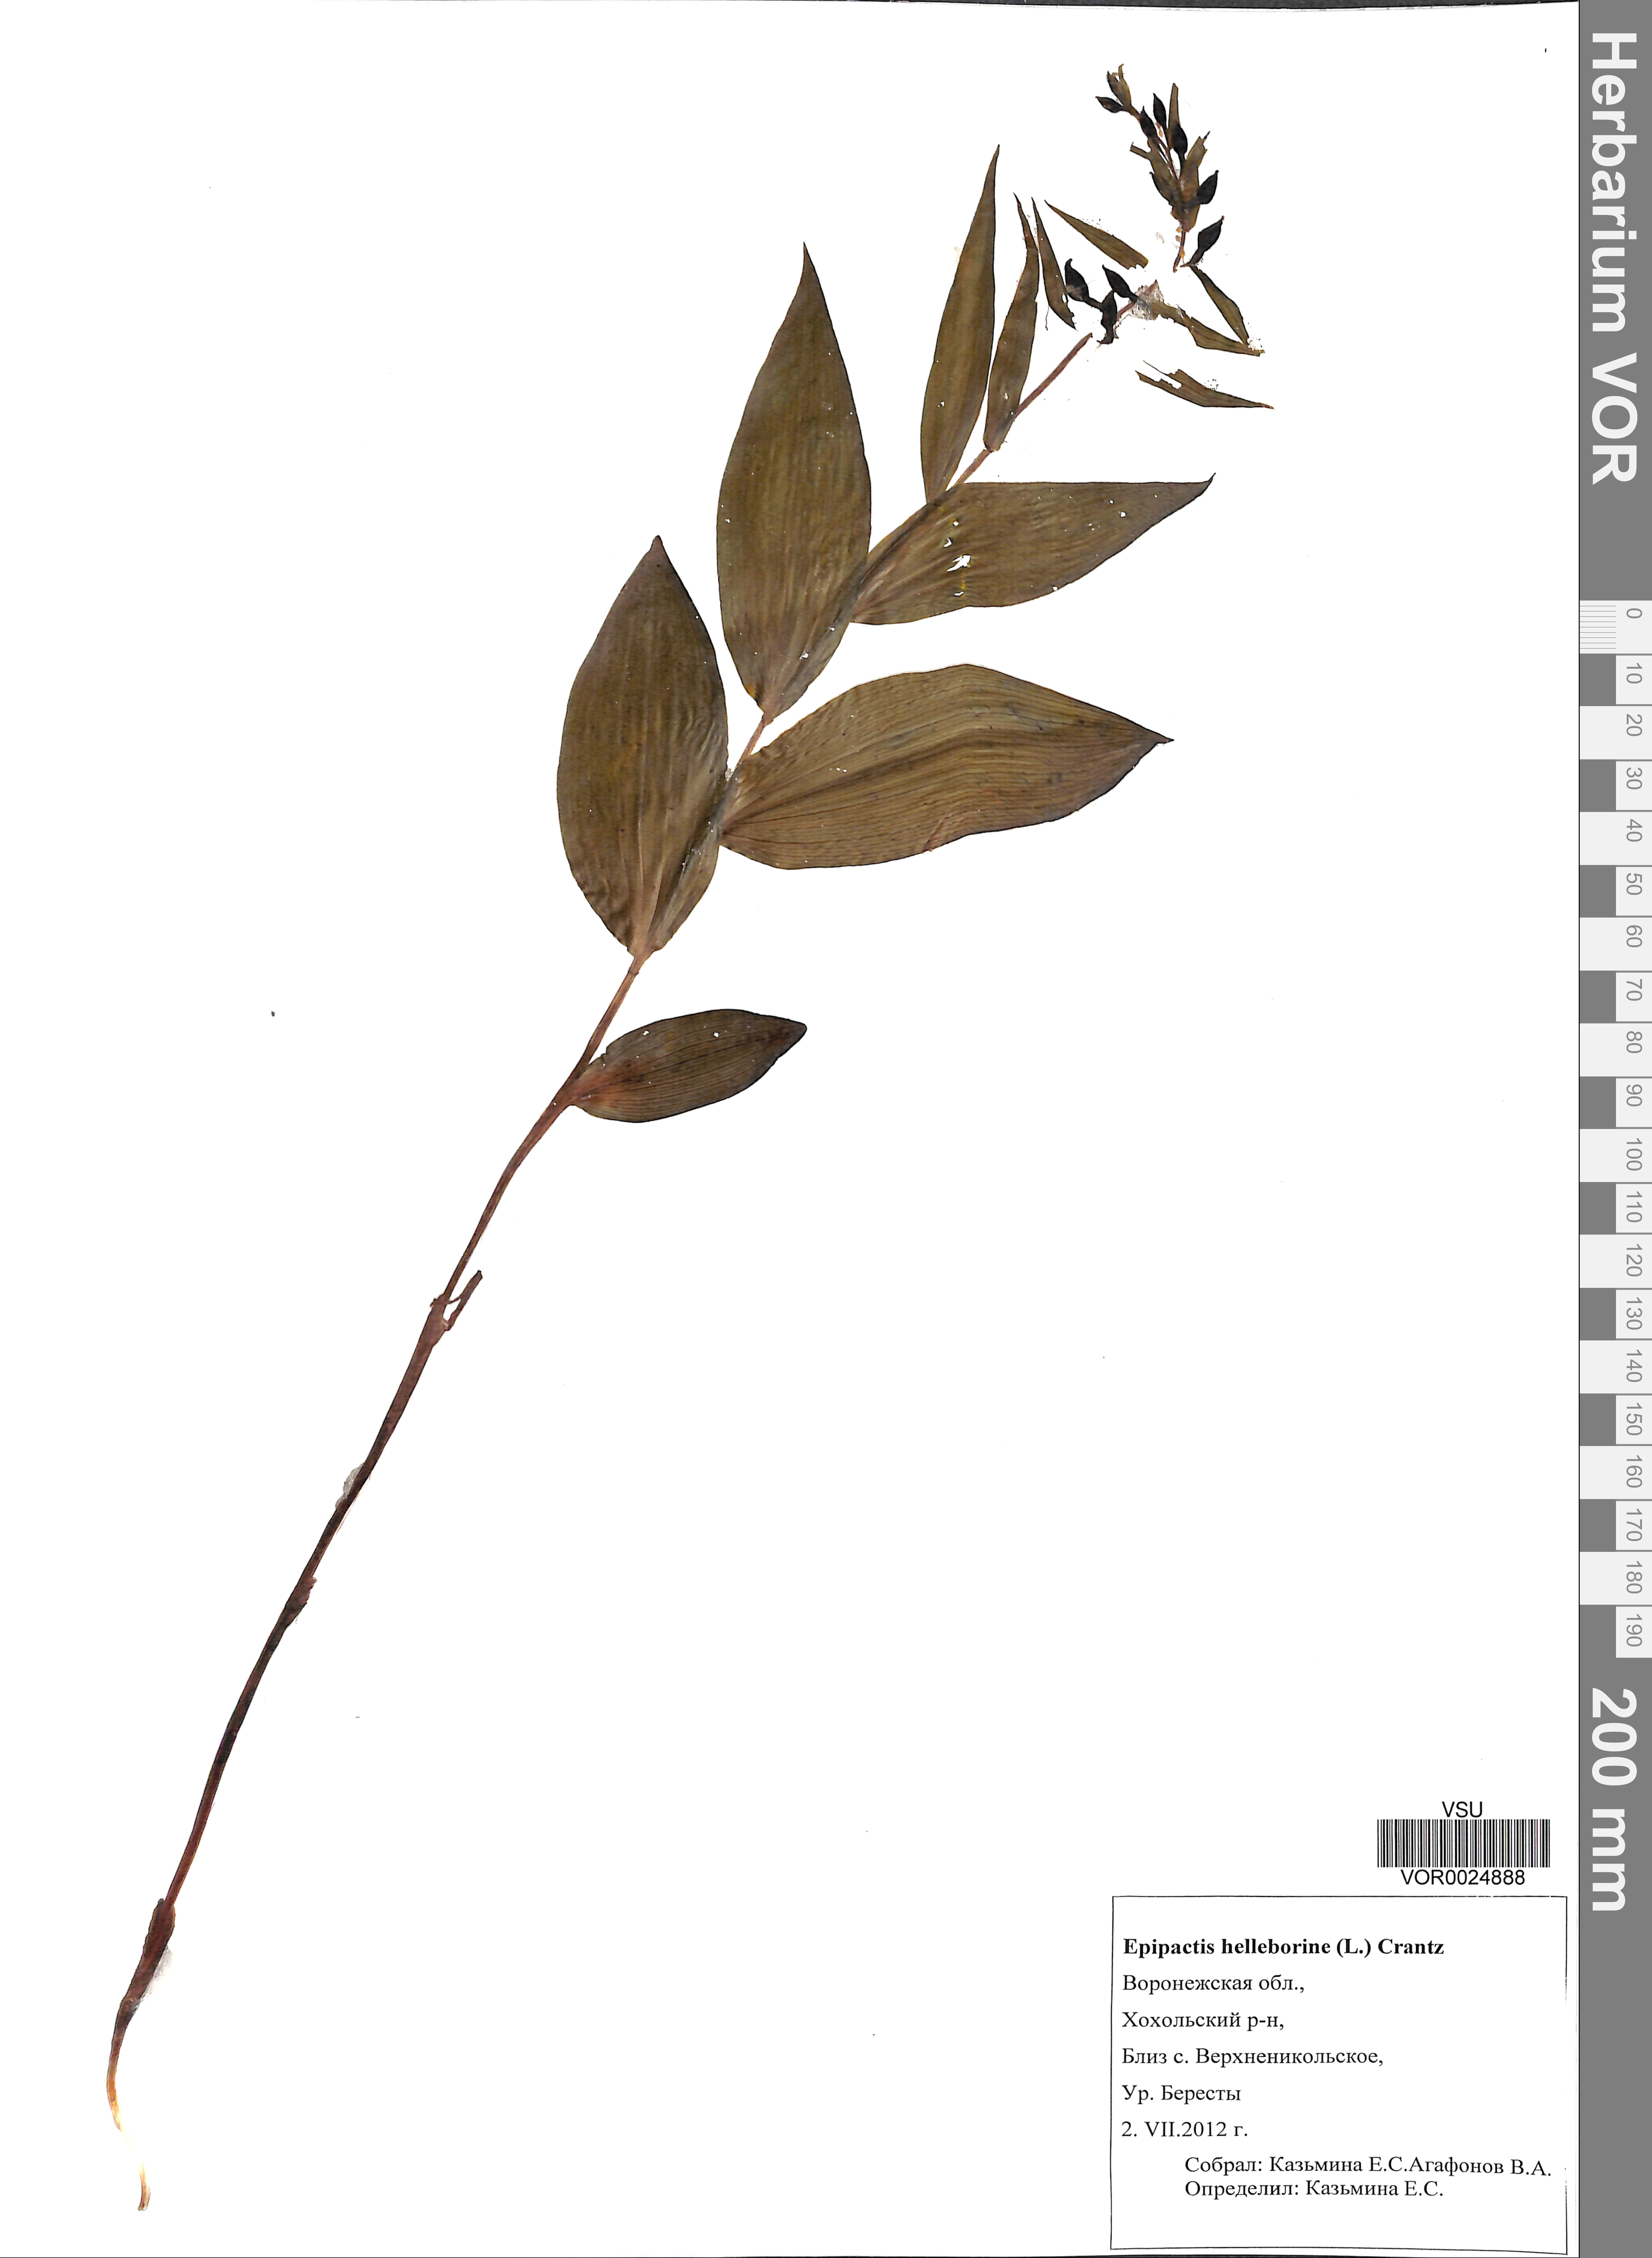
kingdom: Plantae
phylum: Tracheophyta
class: Liliopsida
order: Asparagales
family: Orchidaceae
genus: Epipactis
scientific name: Epipactis helleborine
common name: Broad-leaved helleborine
